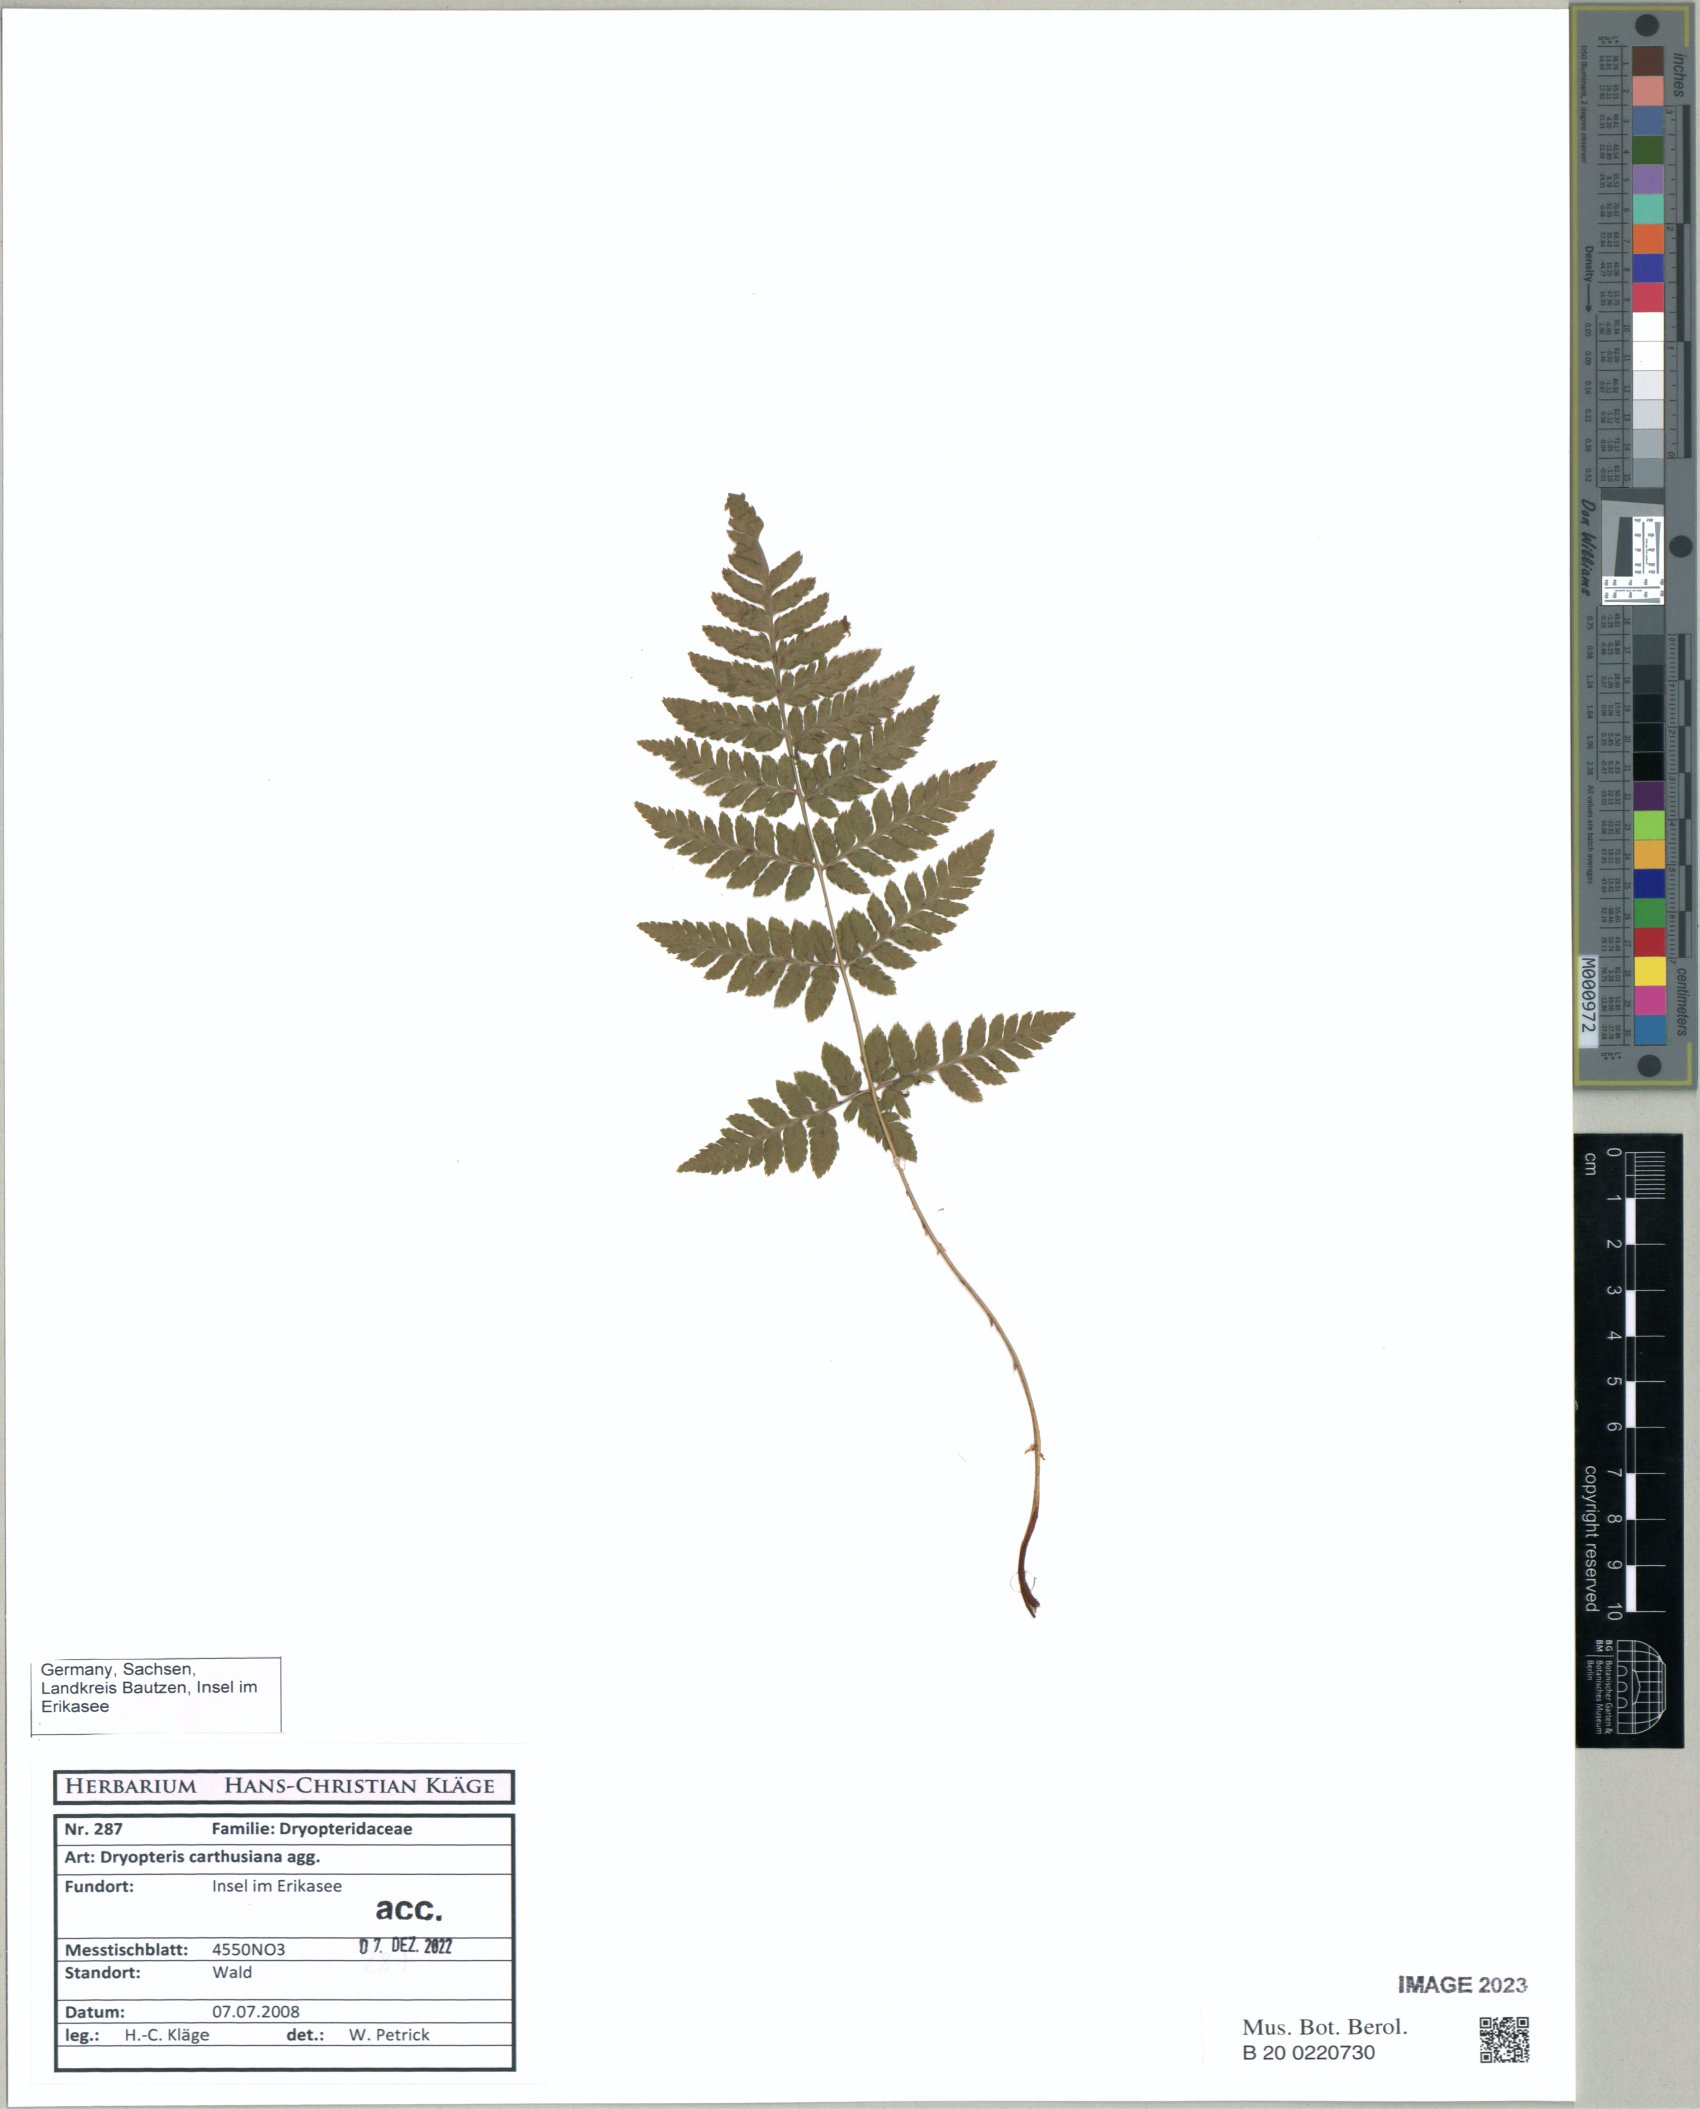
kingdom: Plantae
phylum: Tracheophyta
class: Polypodiopsida
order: Polypodiales
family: Dryopteridaceae
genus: Dryopteris
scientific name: Dryopteris carthusiana
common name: Narrow buckler-fern
